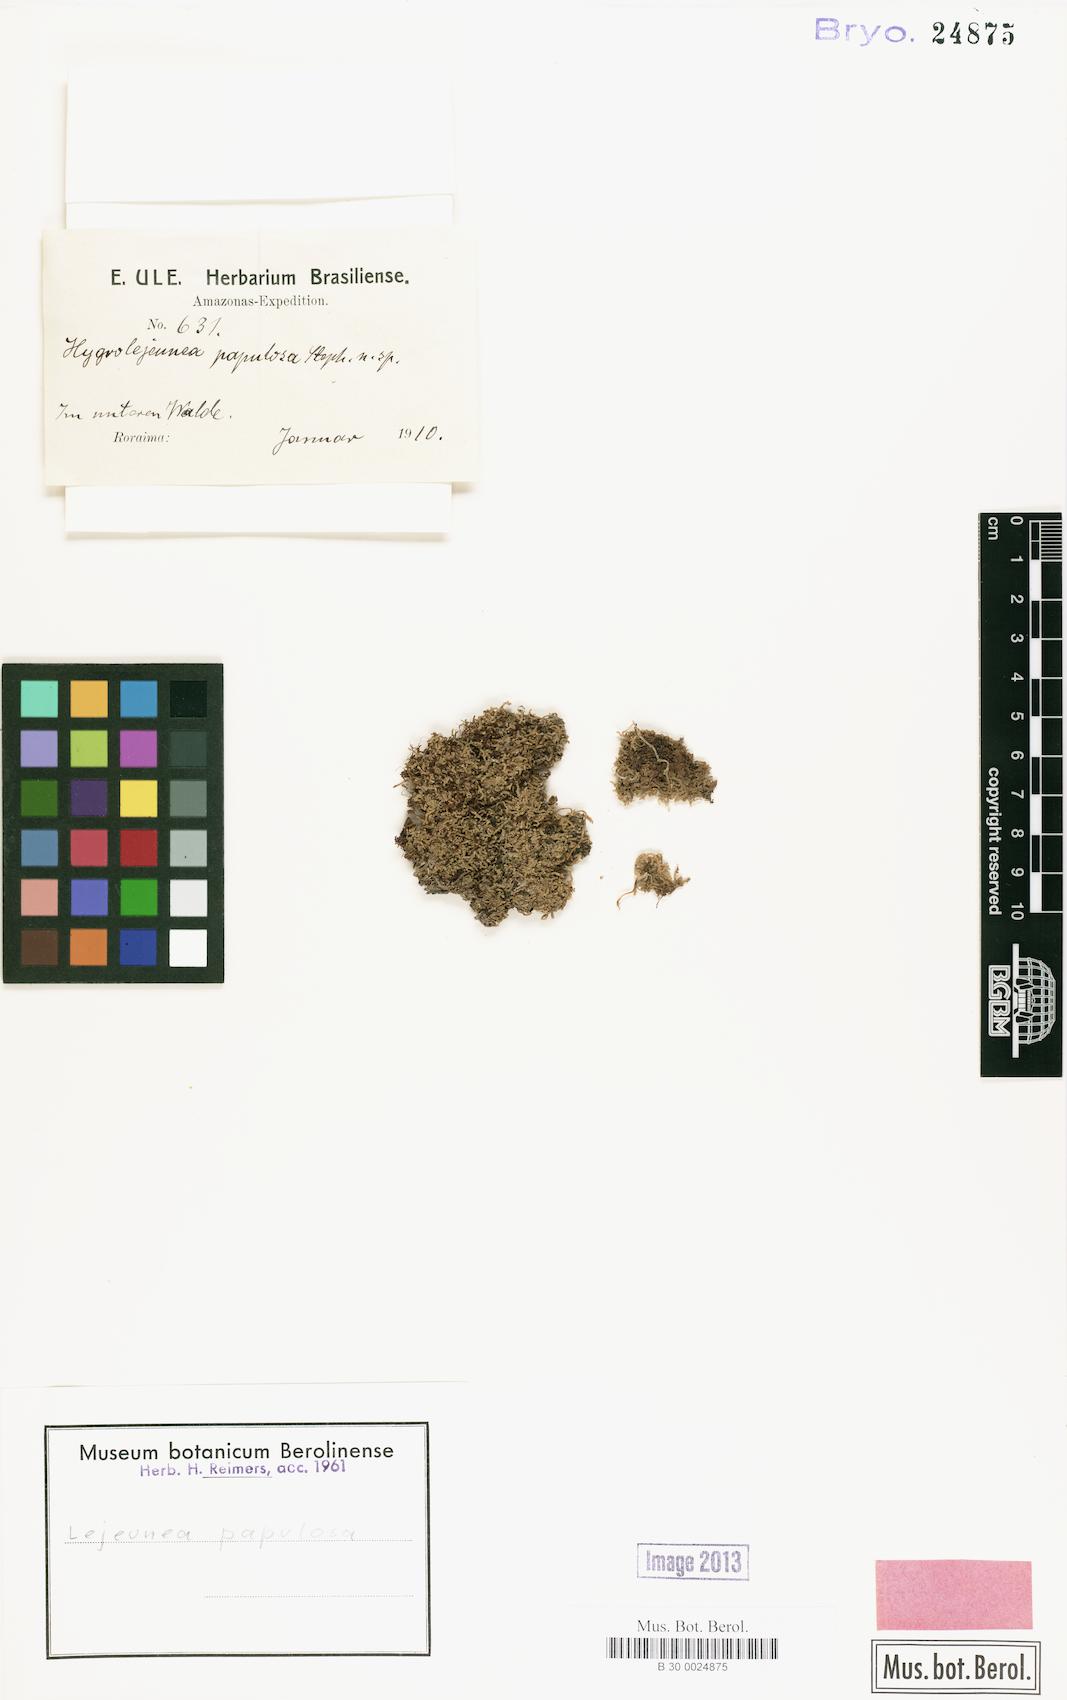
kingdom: Plantae
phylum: Marchantiophyta
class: Jungermanniopsida
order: Porellales
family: Lejeuneaceae
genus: Microlejeunea
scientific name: Microlejeunea papulosa
